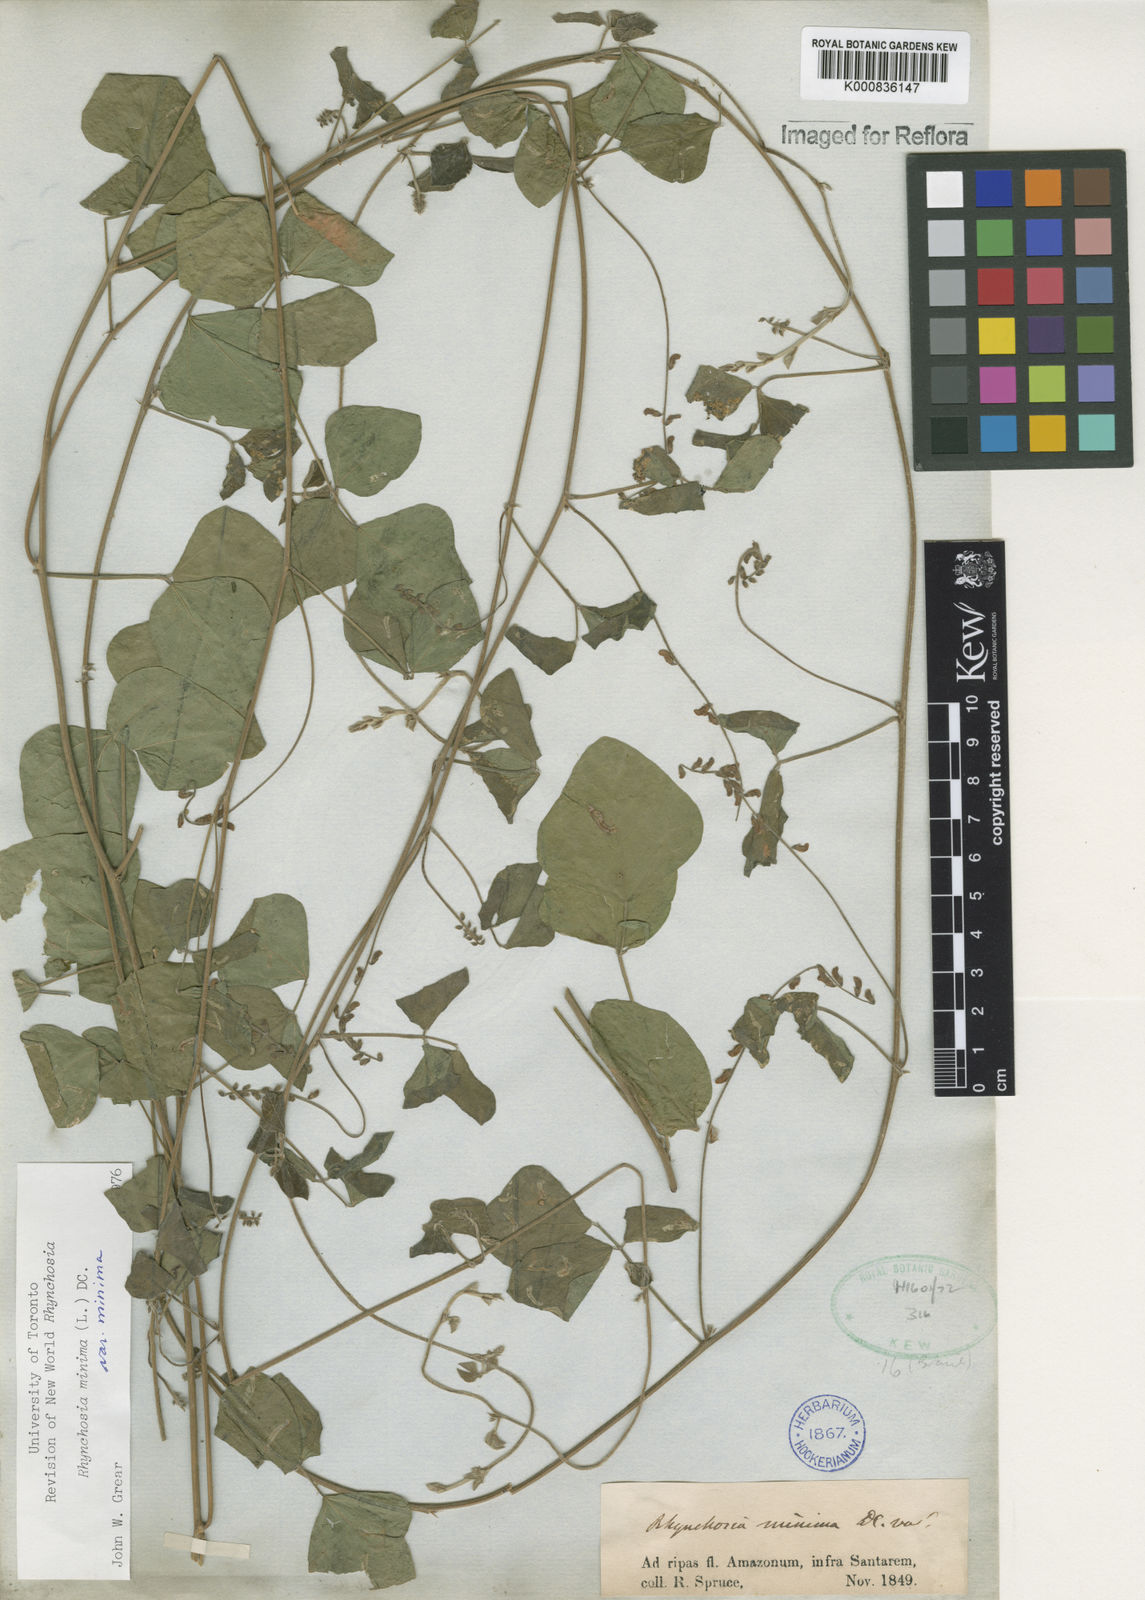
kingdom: Plantae
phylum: Tracheophyta
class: Magnoliopsida
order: Fabales
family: Fabaceae
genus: Rhynchosia
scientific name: Rhynchosia minima
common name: Least snoutbean
